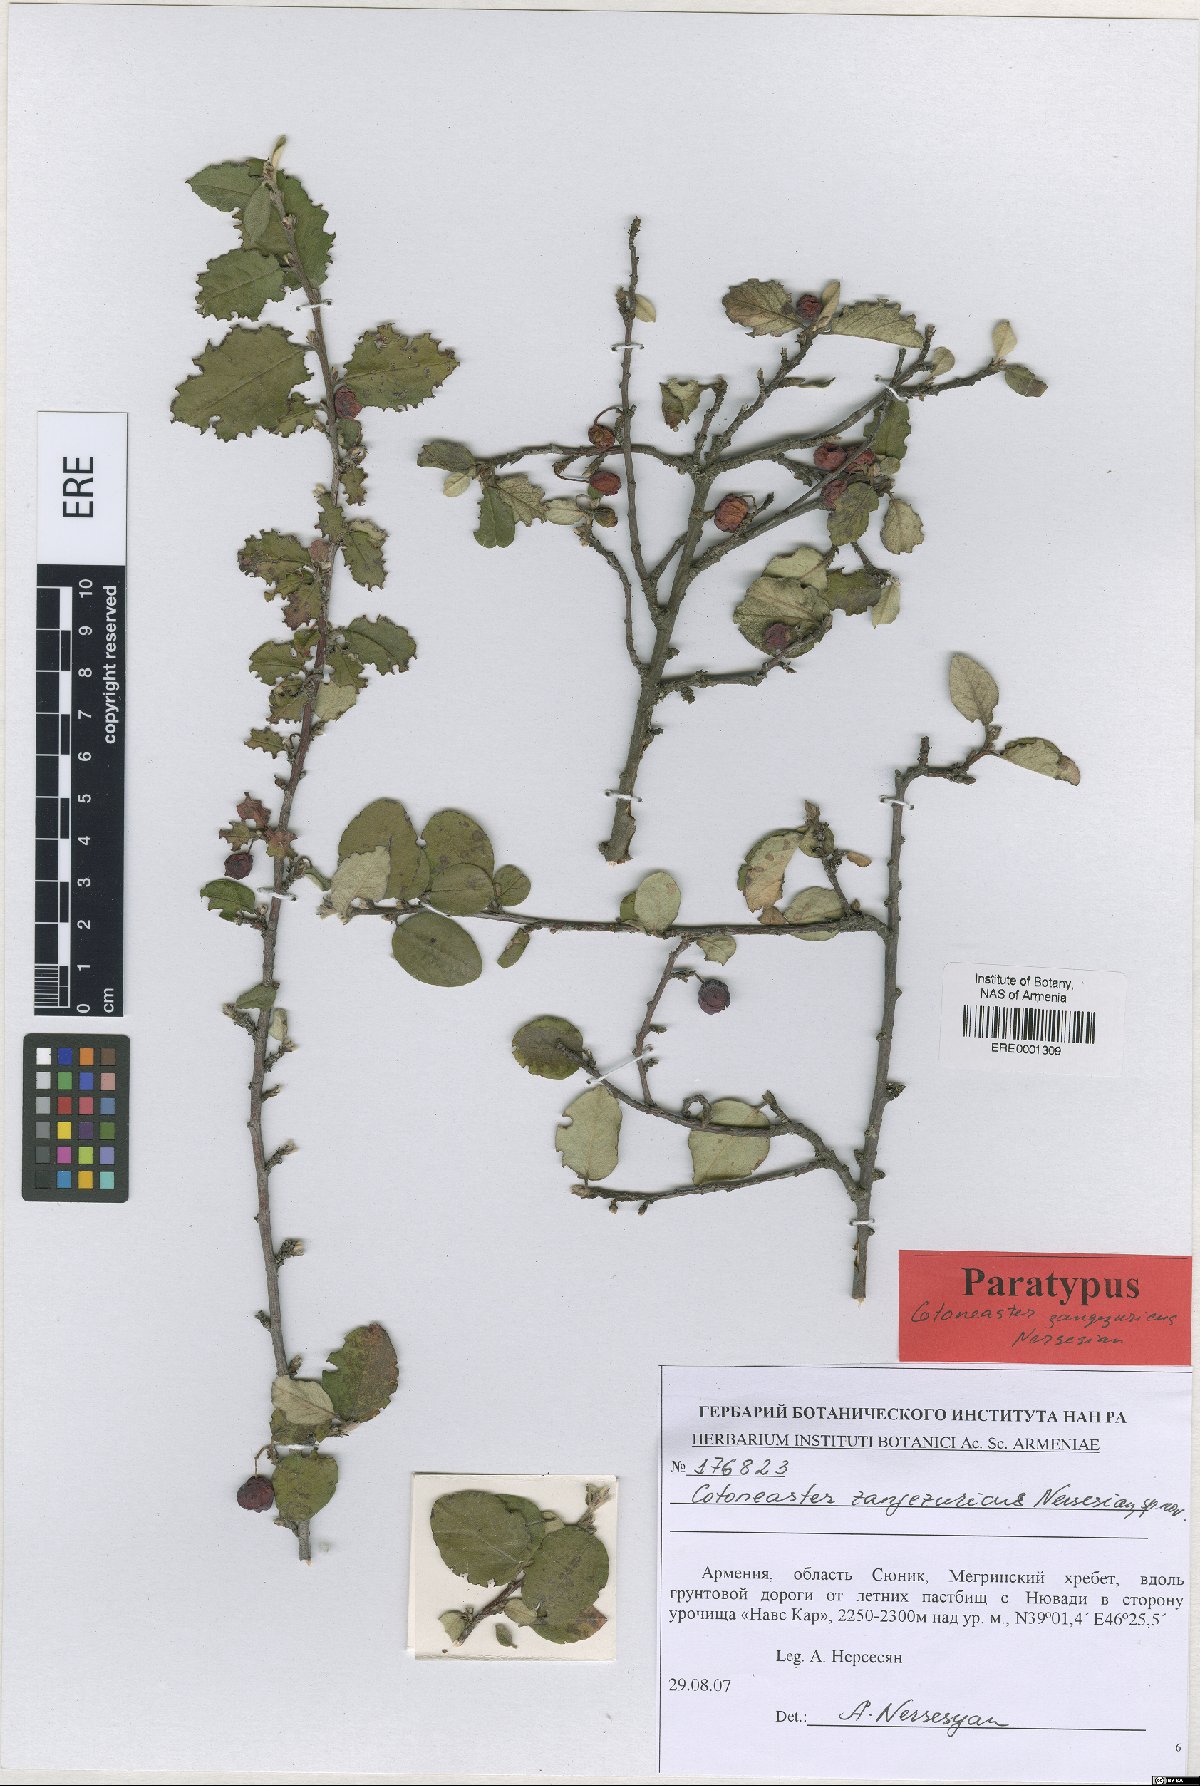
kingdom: Plantae
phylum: Tracheophyta
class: Magnoliopsida
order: Rosales
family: Rosaceae
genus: Cotoneaster
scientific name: Cotoneaster zangezuricus
